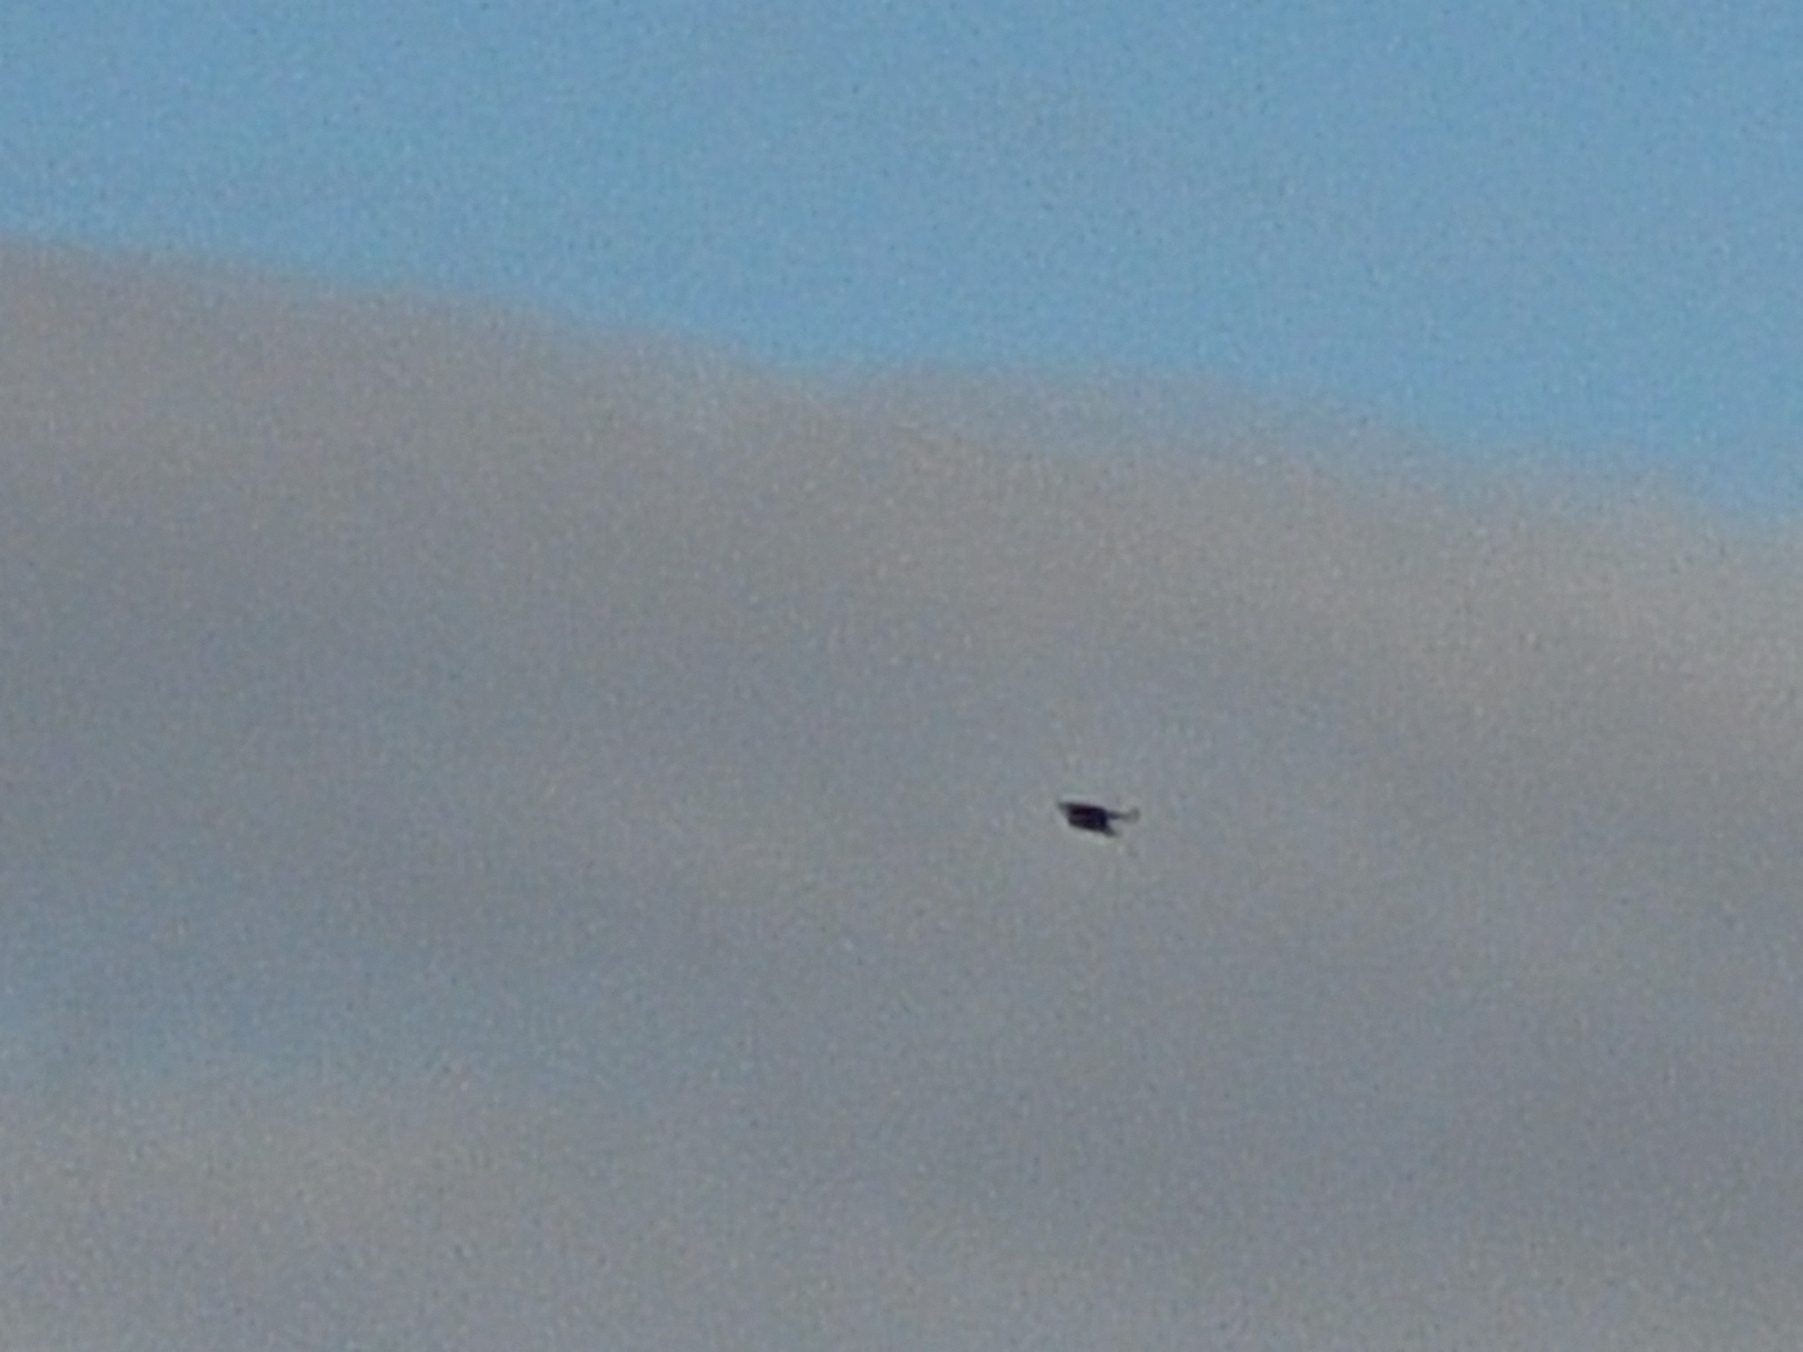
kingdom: Animalia
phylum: Chordata
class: Aves
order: Accipitriformes
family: Accipitridae
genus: Milvus
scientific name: Milvus milvus
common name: Rød glente
